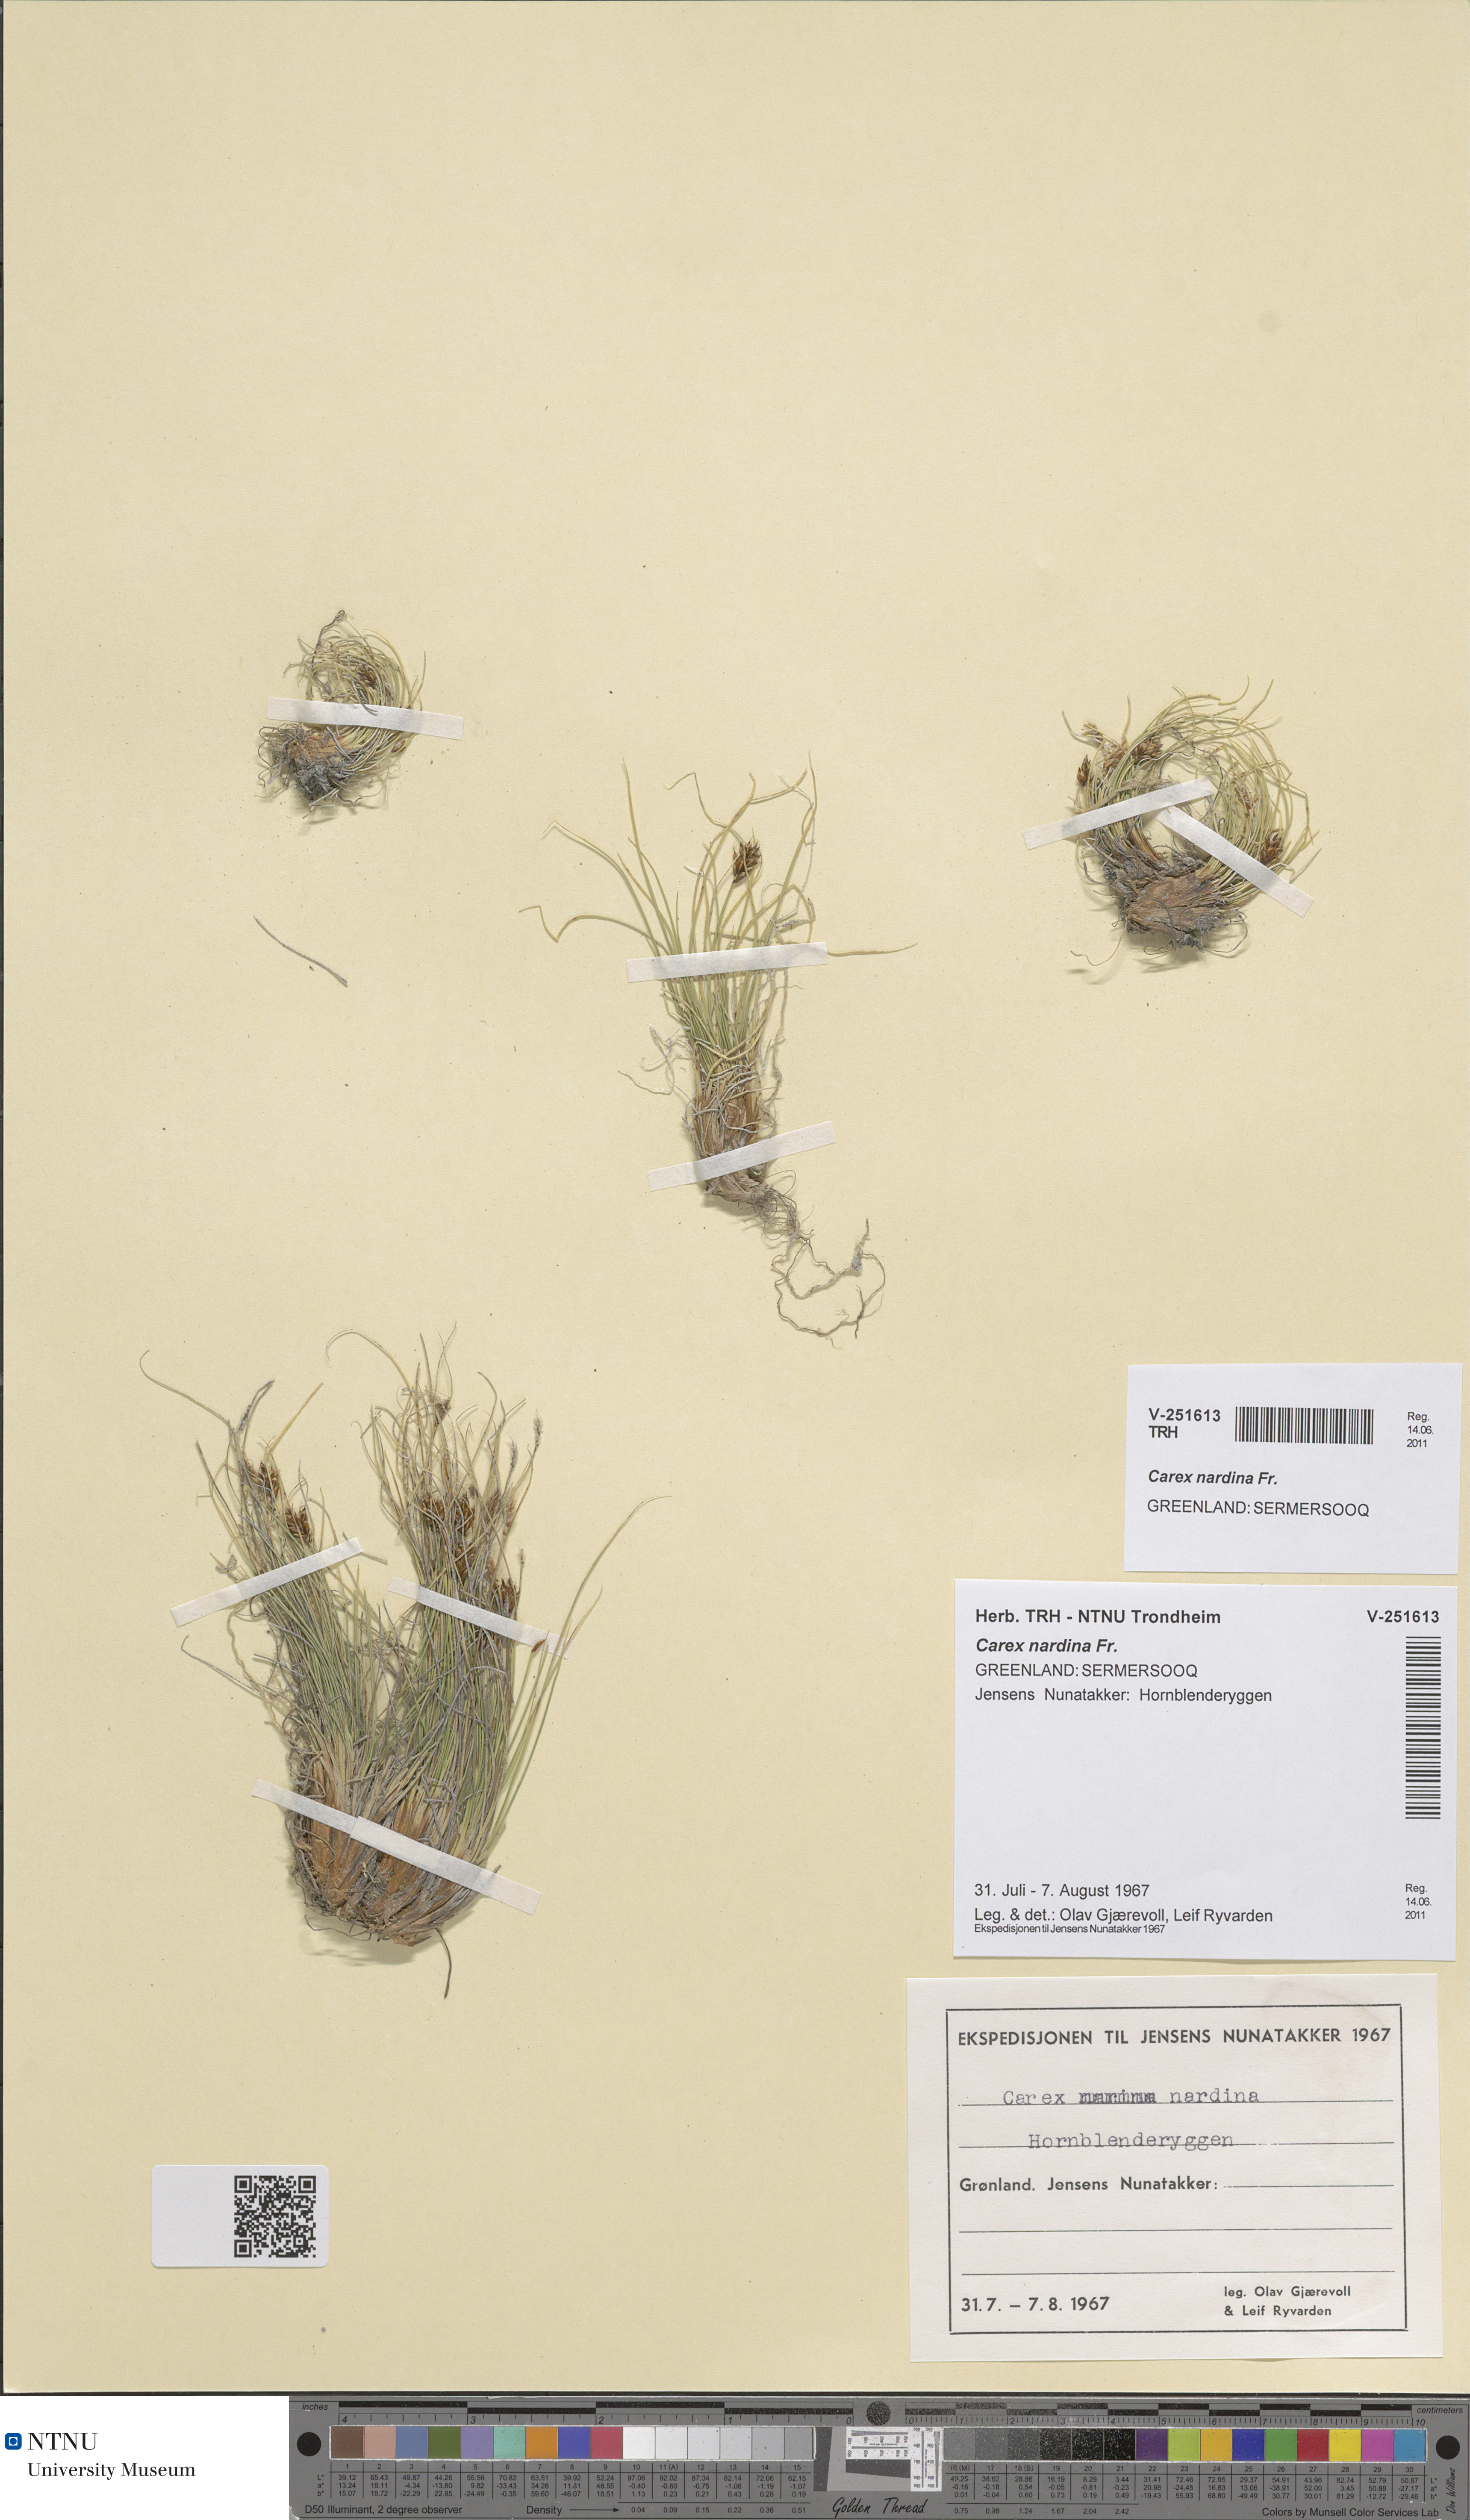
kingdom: Plantae
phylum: Tracheophyta
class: Liliopsida
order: Poales
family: Cyperaceae
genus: Carex
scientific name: Carex nardina
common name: Nard sedge
